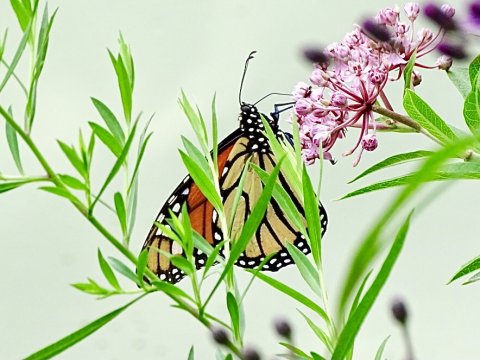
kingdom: Animalia
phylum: Arthropoda
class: Insecta
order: Lepidoptera
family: Nymphalidae
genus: Danaus
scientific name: Danaus plexippus
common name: Monarch
